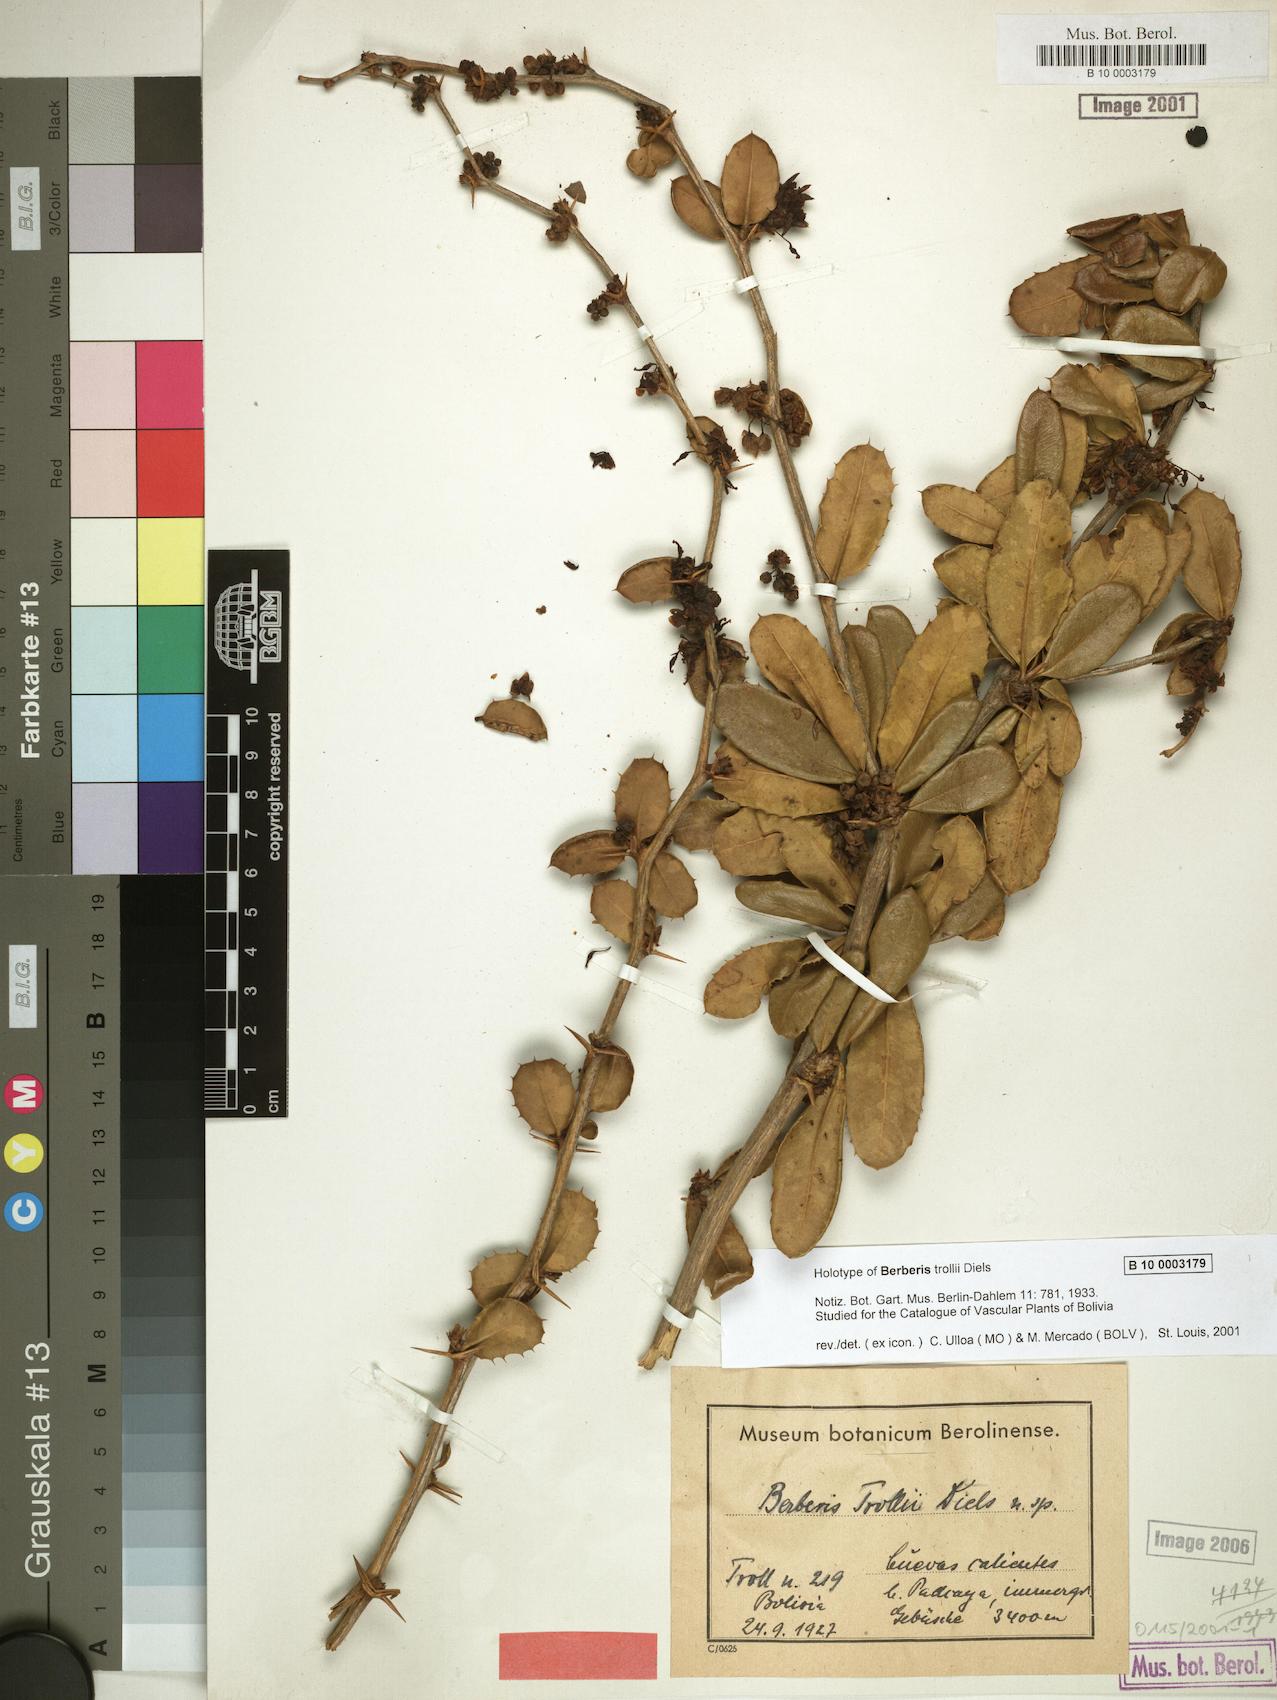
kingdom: Plantae
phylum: Tracheophyta
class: Magnoliopsida
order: Ranunculales
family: Berberidaceae
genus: Berberis
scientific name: Berberis
